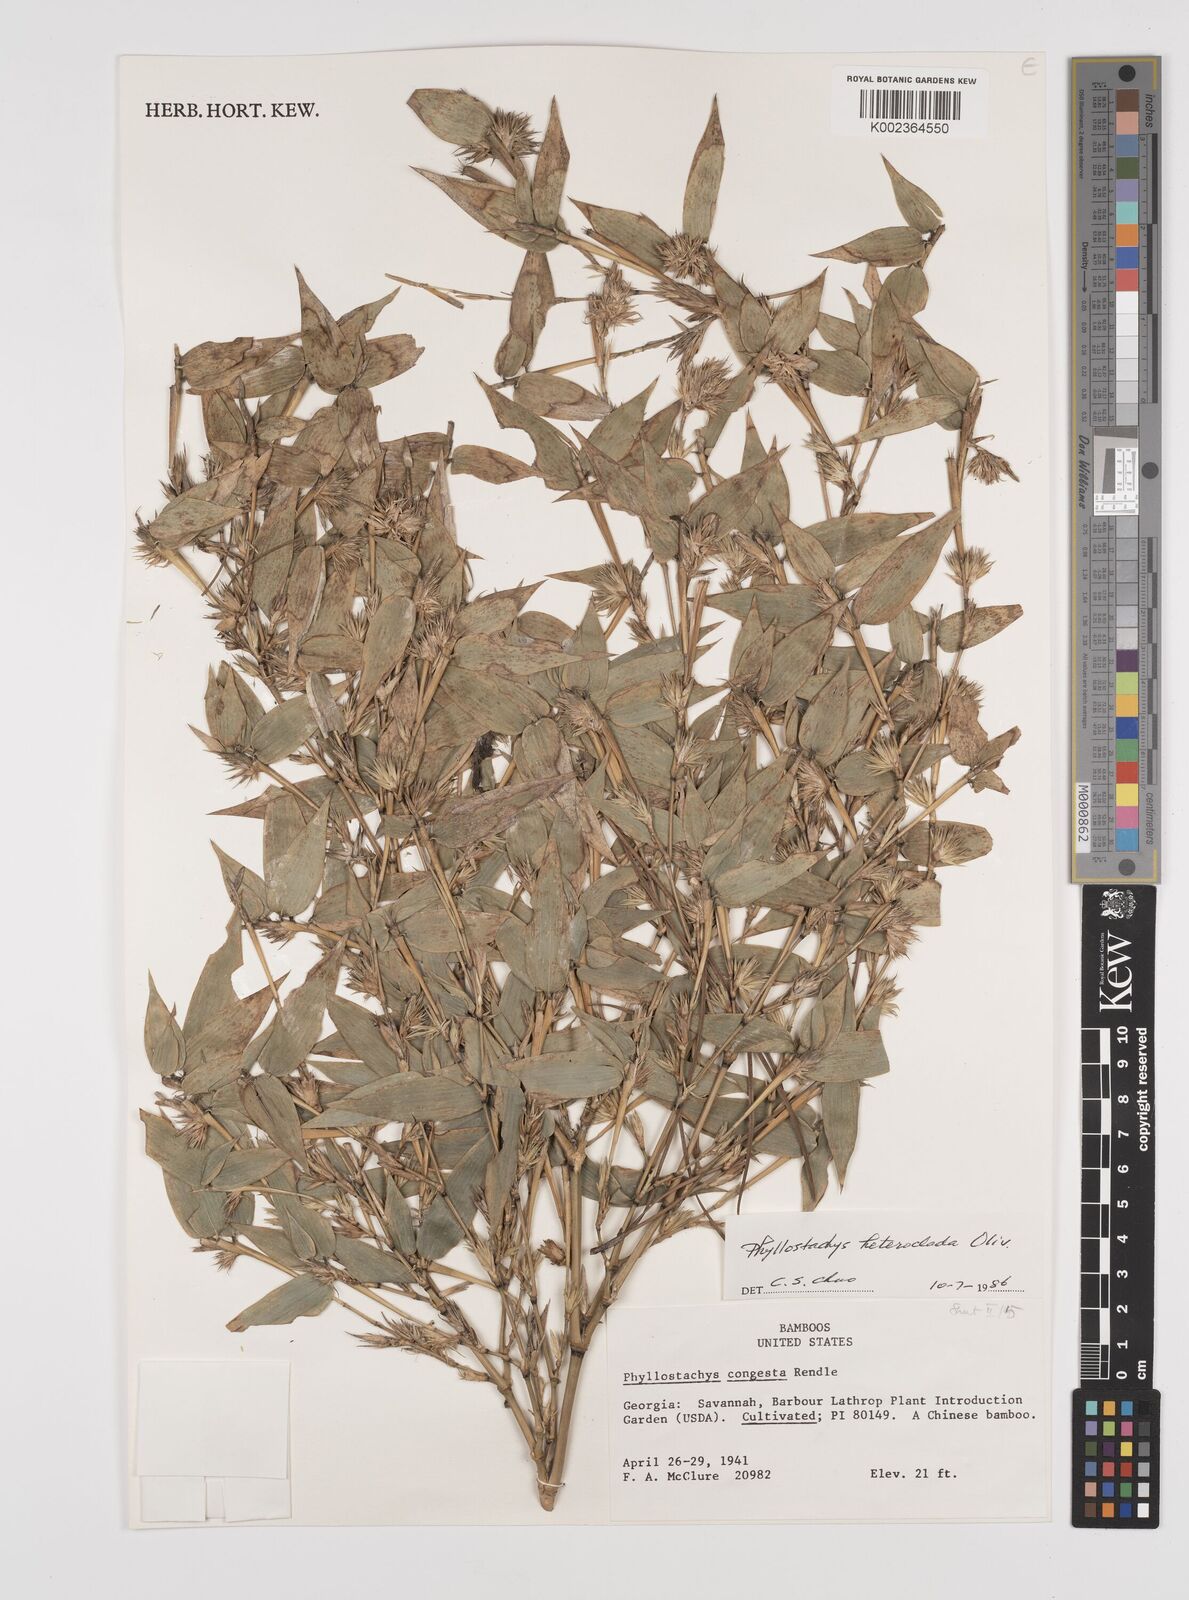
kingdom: Plantae
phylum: Tracheophyta
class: Liliopsida
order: Poales
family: Poaceae
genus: Phyllostachys
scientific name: Phyllostachys heteroclada
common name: Fishscale bamboo
